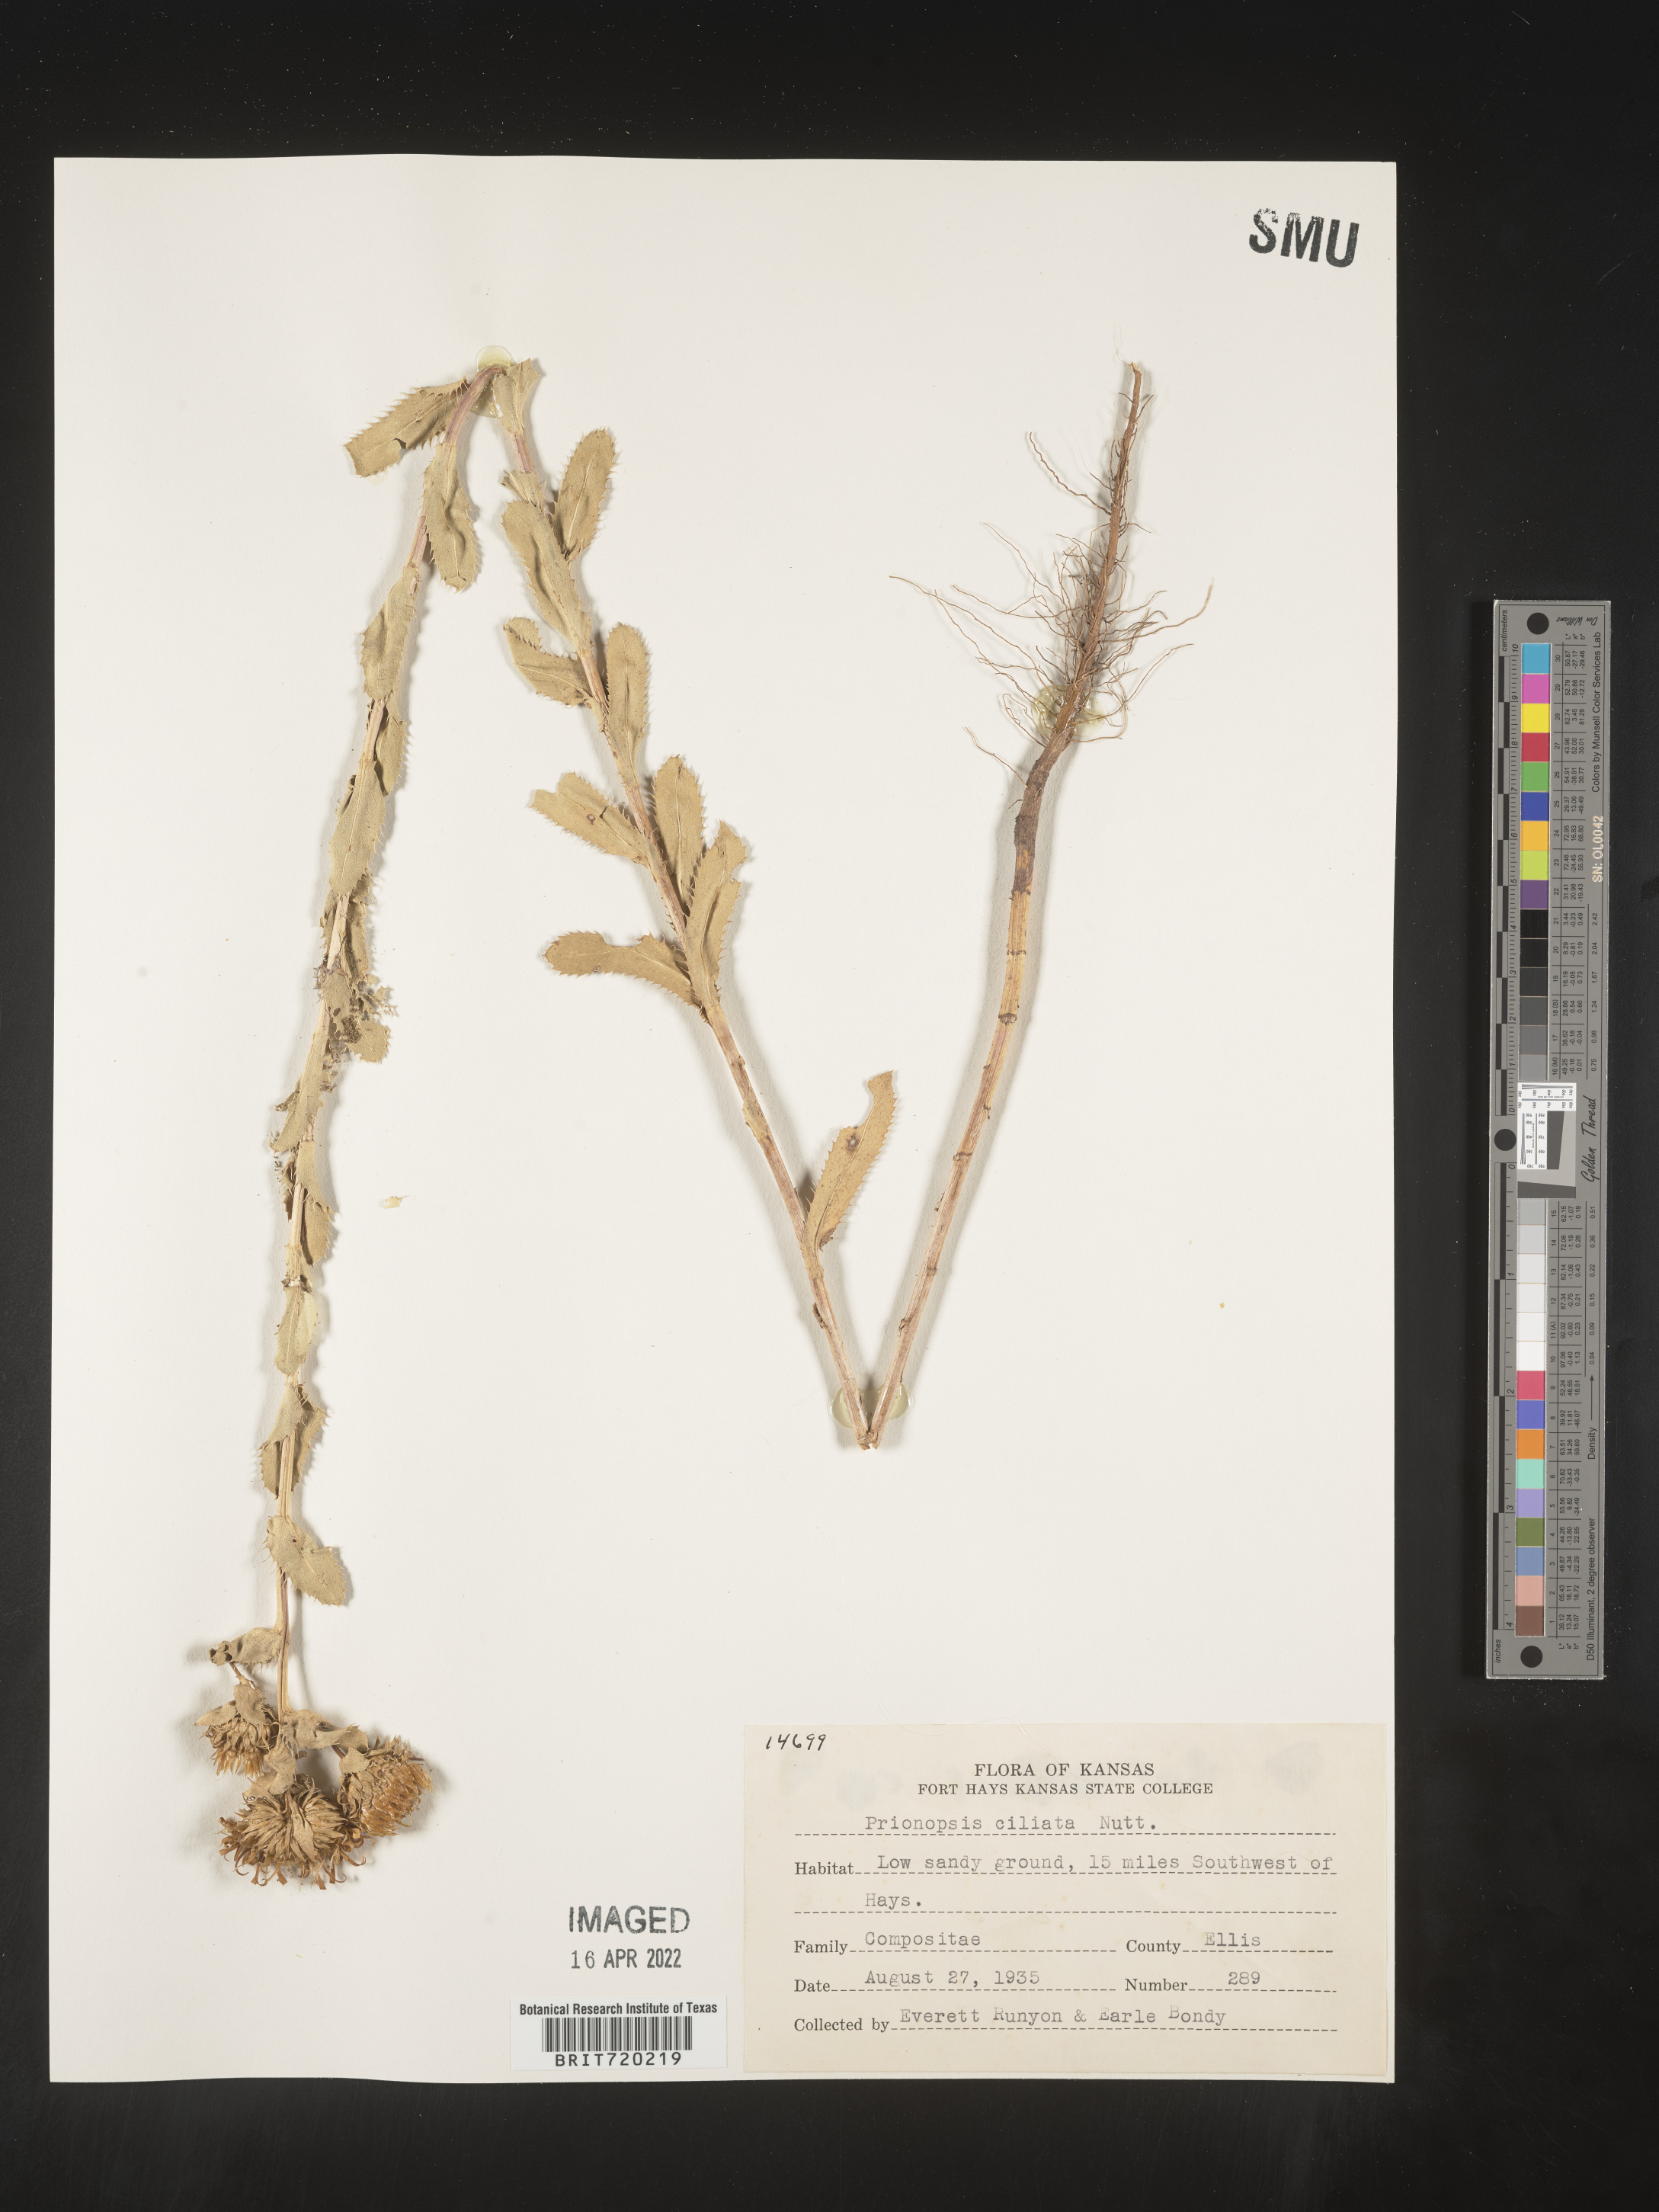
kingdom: Plantae
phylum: Tracheophyta
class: Magnoliopsida
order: Asterales
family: Asteraceae
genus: Grindelia
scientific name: Grindelia ciliata
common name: Goldenweed
